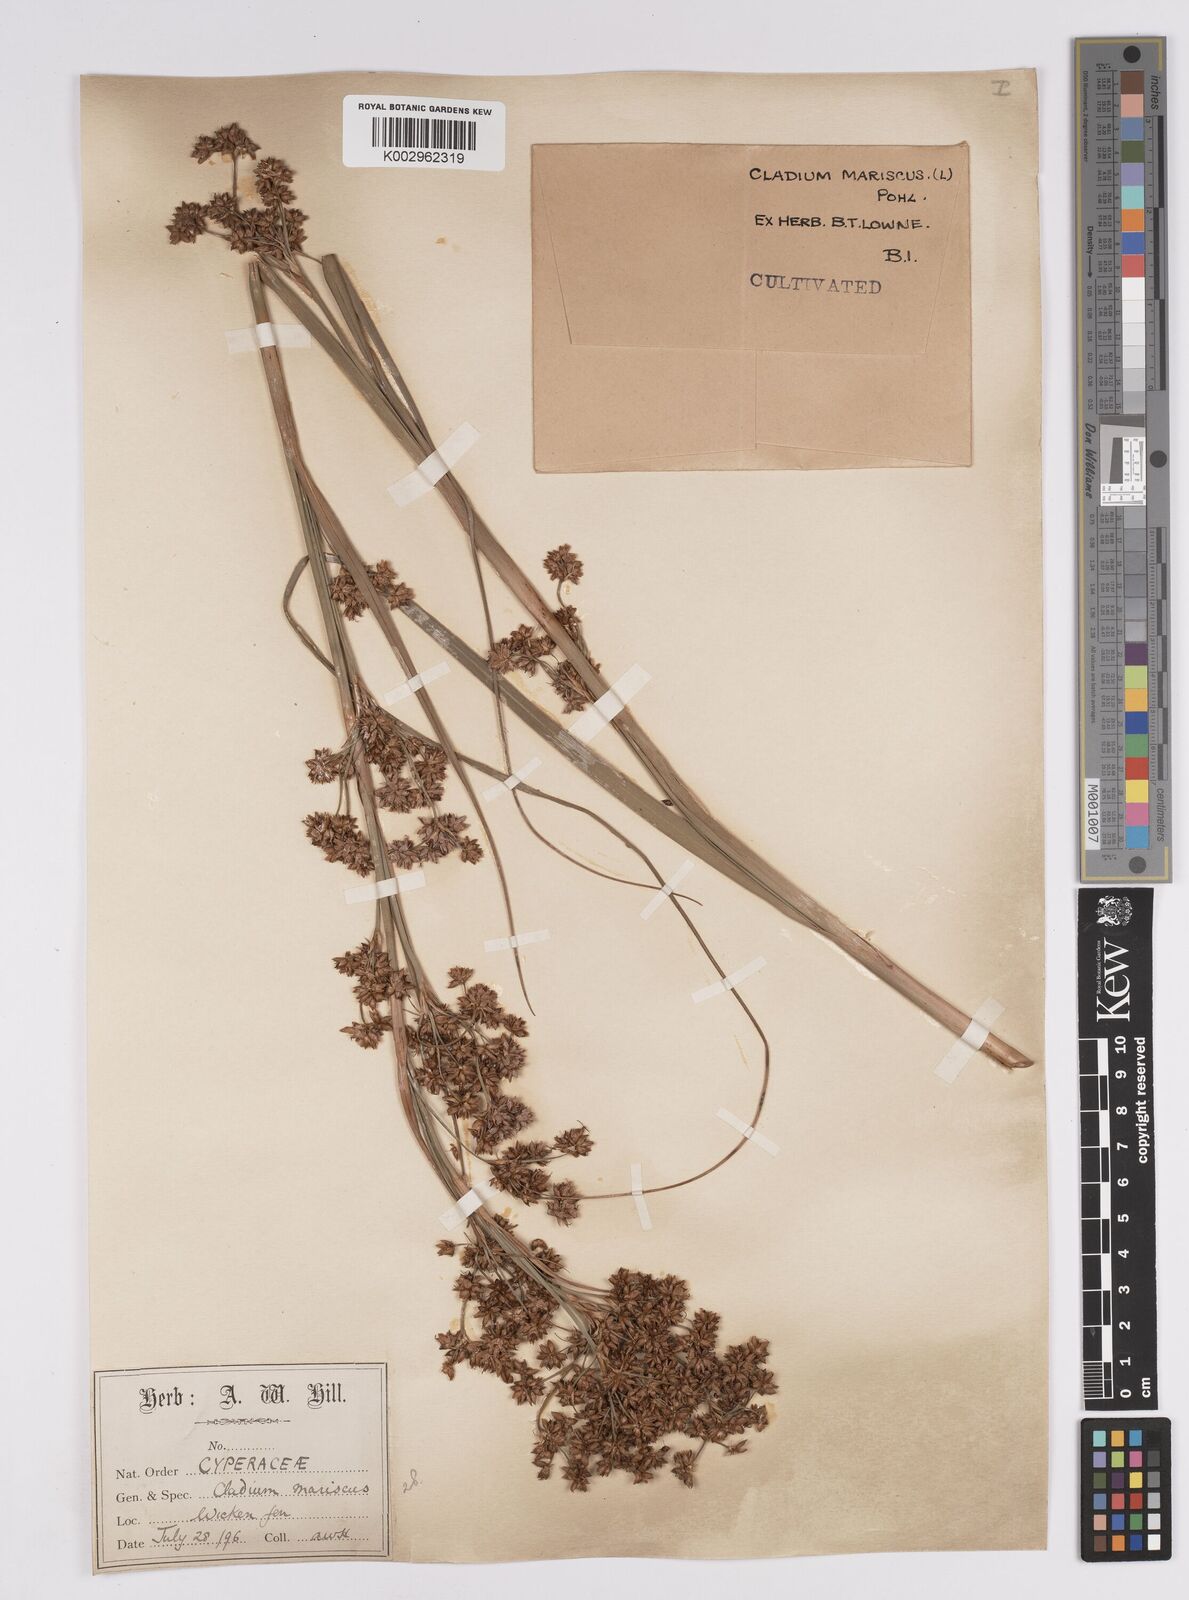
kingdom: Plantae
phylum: Tracheophyta
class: Liliopsida
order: Poales
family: Cyperaceae
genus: Cladium
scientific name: Cladium mariscus
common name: Great fen-sedge
